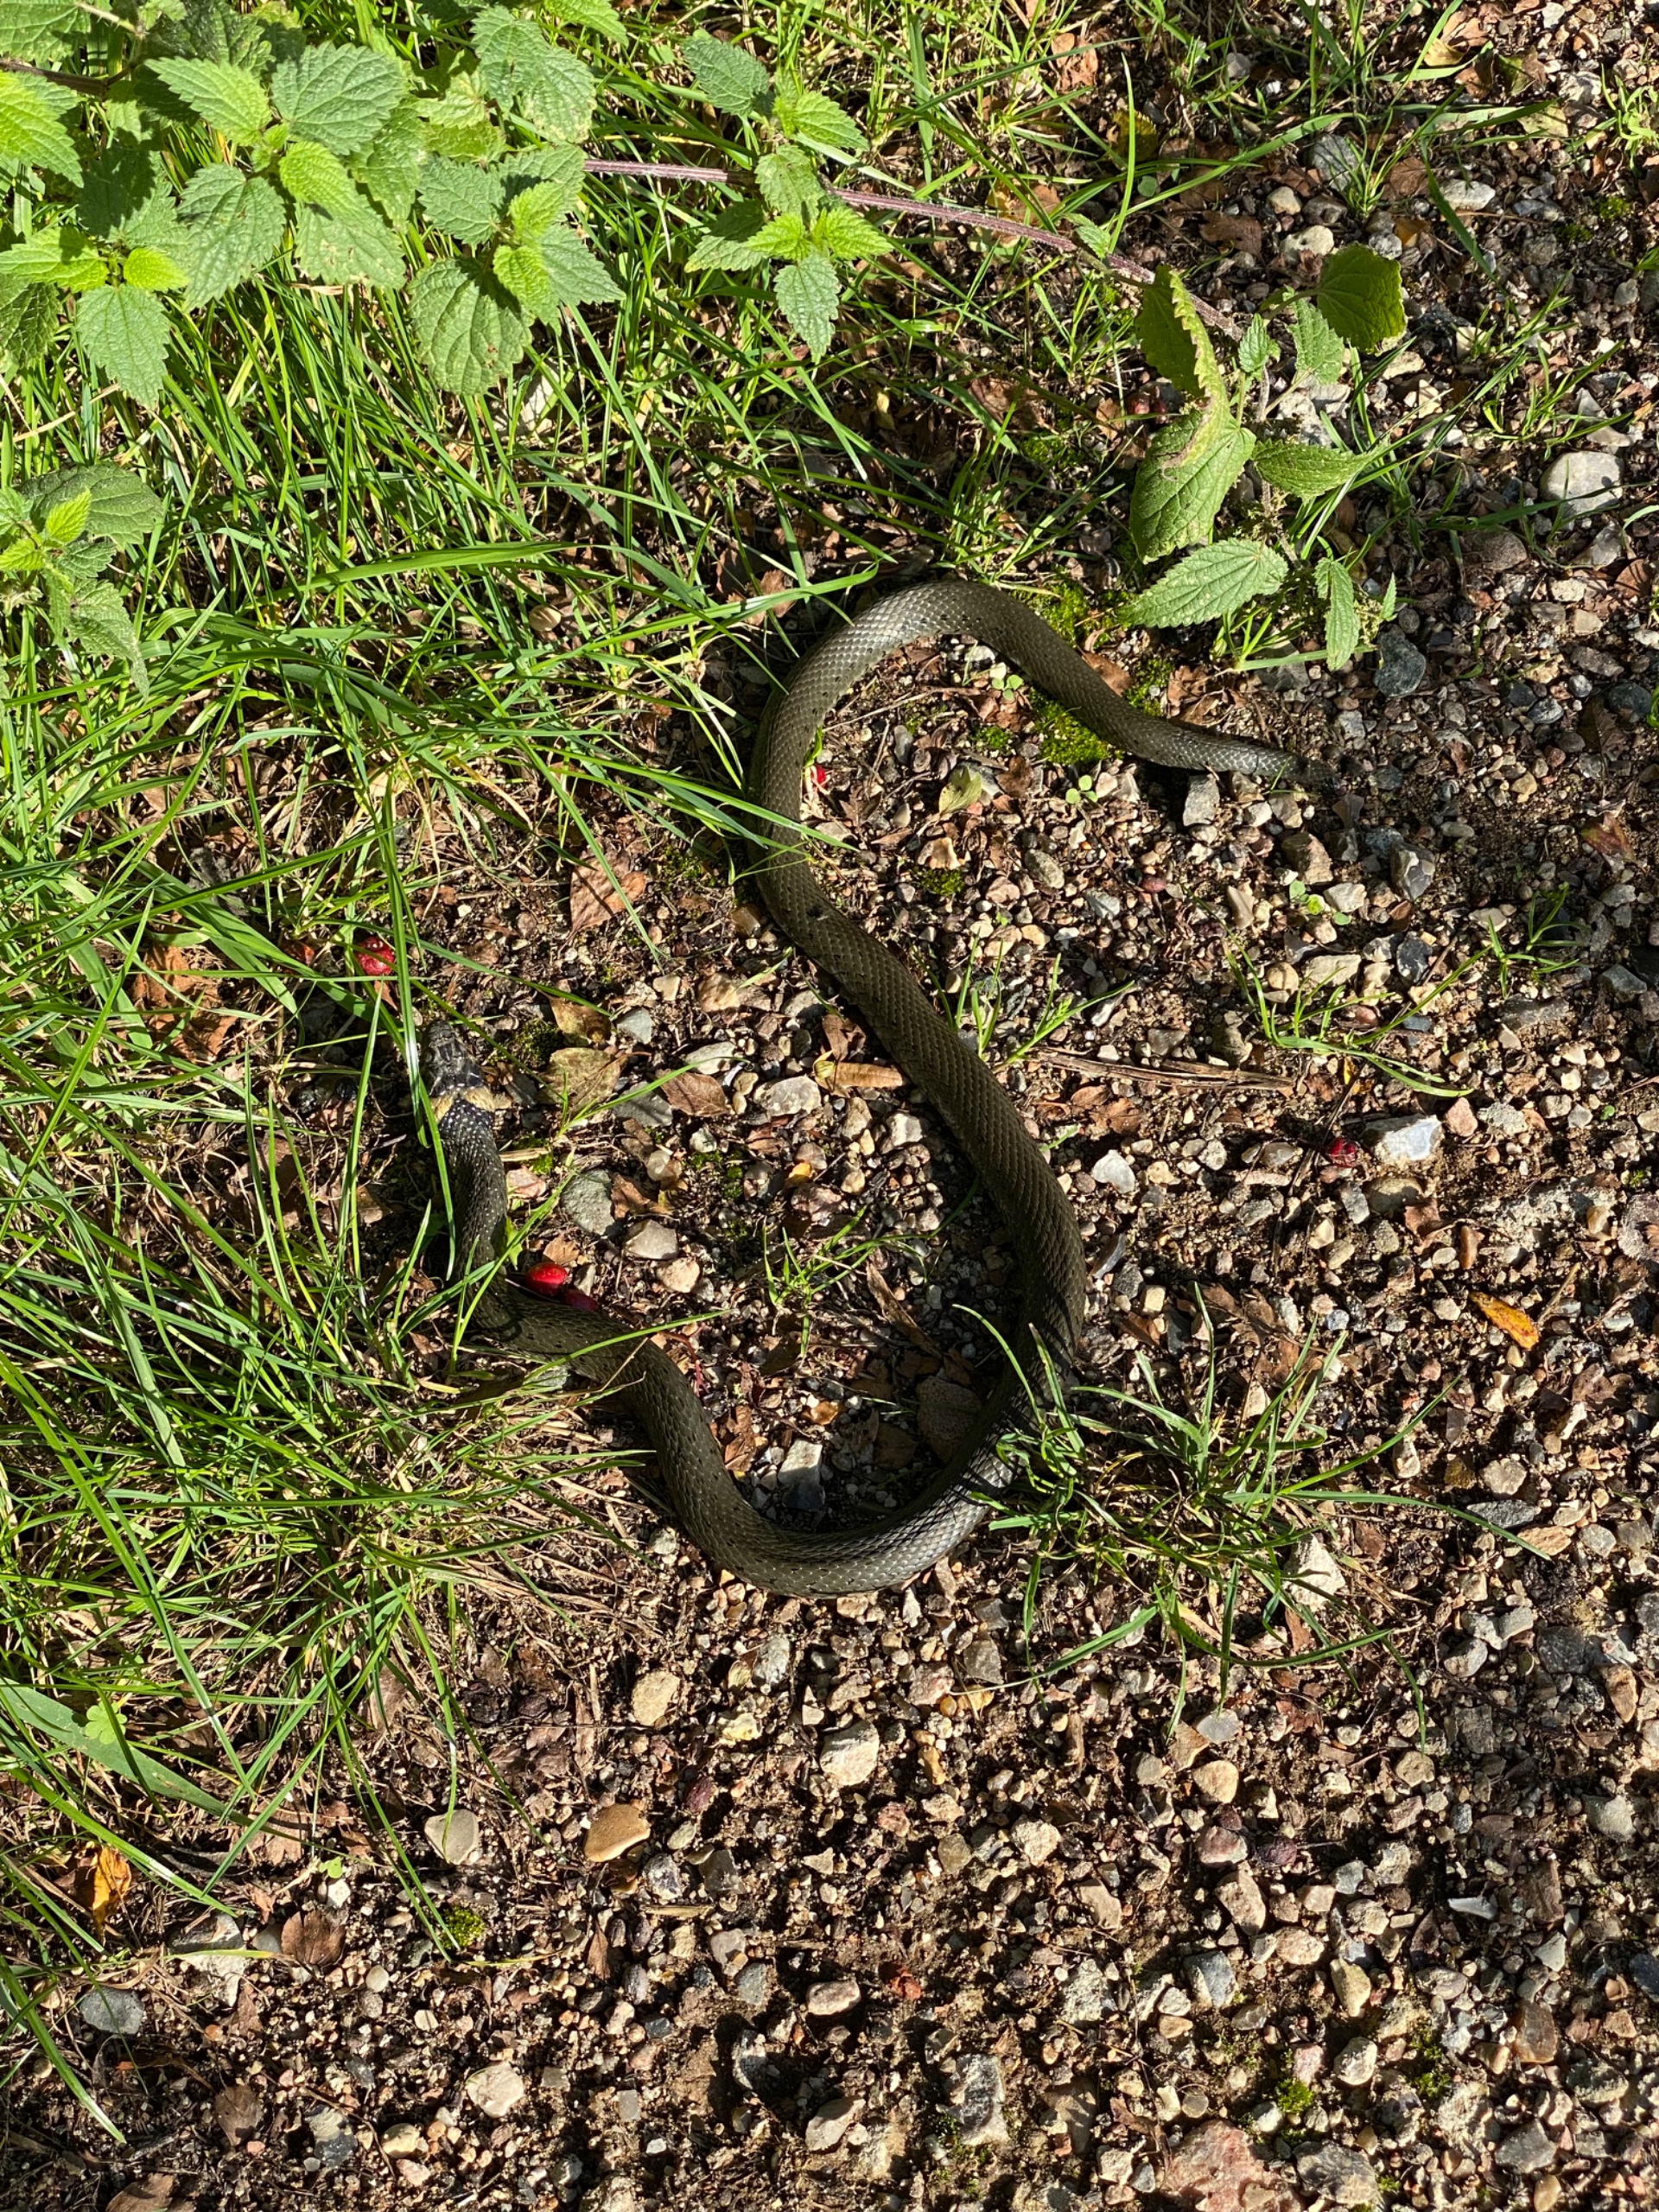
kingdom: Animalia
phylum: Chordata
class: Squamata
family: Colubridae
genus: Natrix
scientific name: Natrix natrix
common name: Snog
